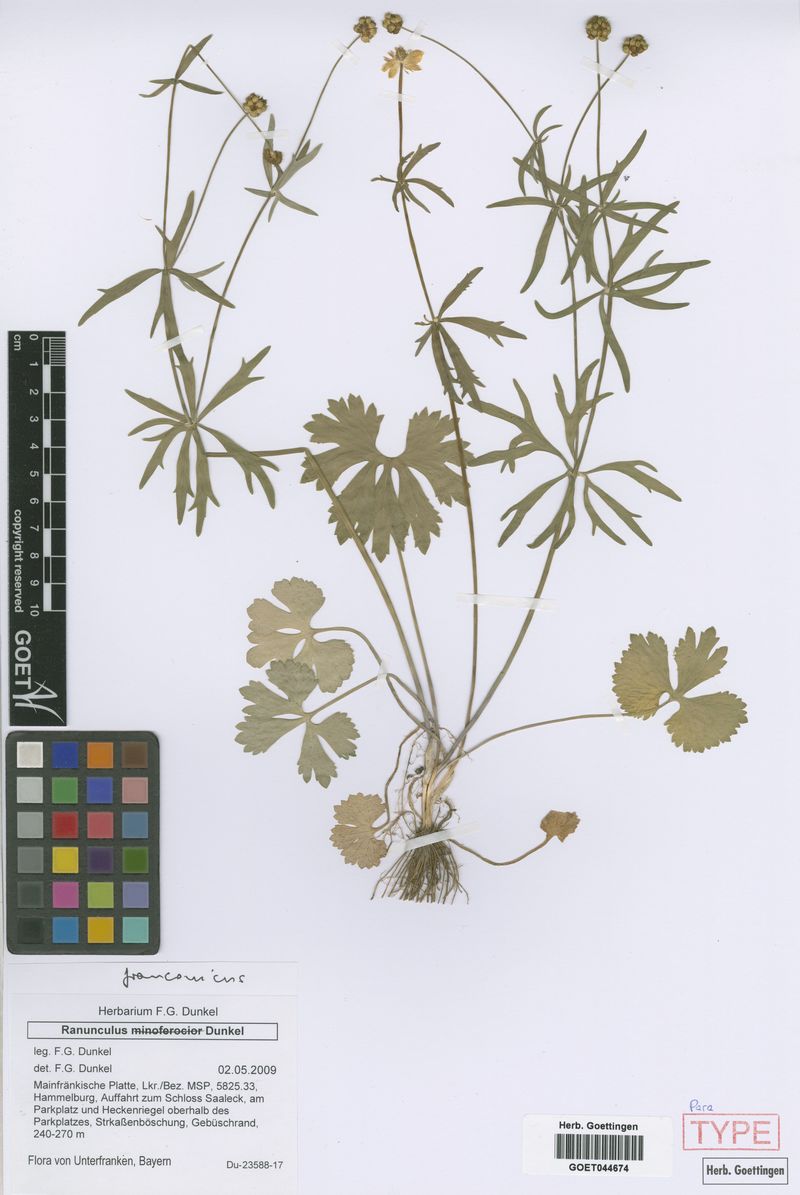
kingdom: Plantae
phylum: Tracheophyta
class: Magnoliopsida
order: Ranunculales
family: Ranunculaceae
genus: Ranunculus
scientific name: Ranunculus franconicus
